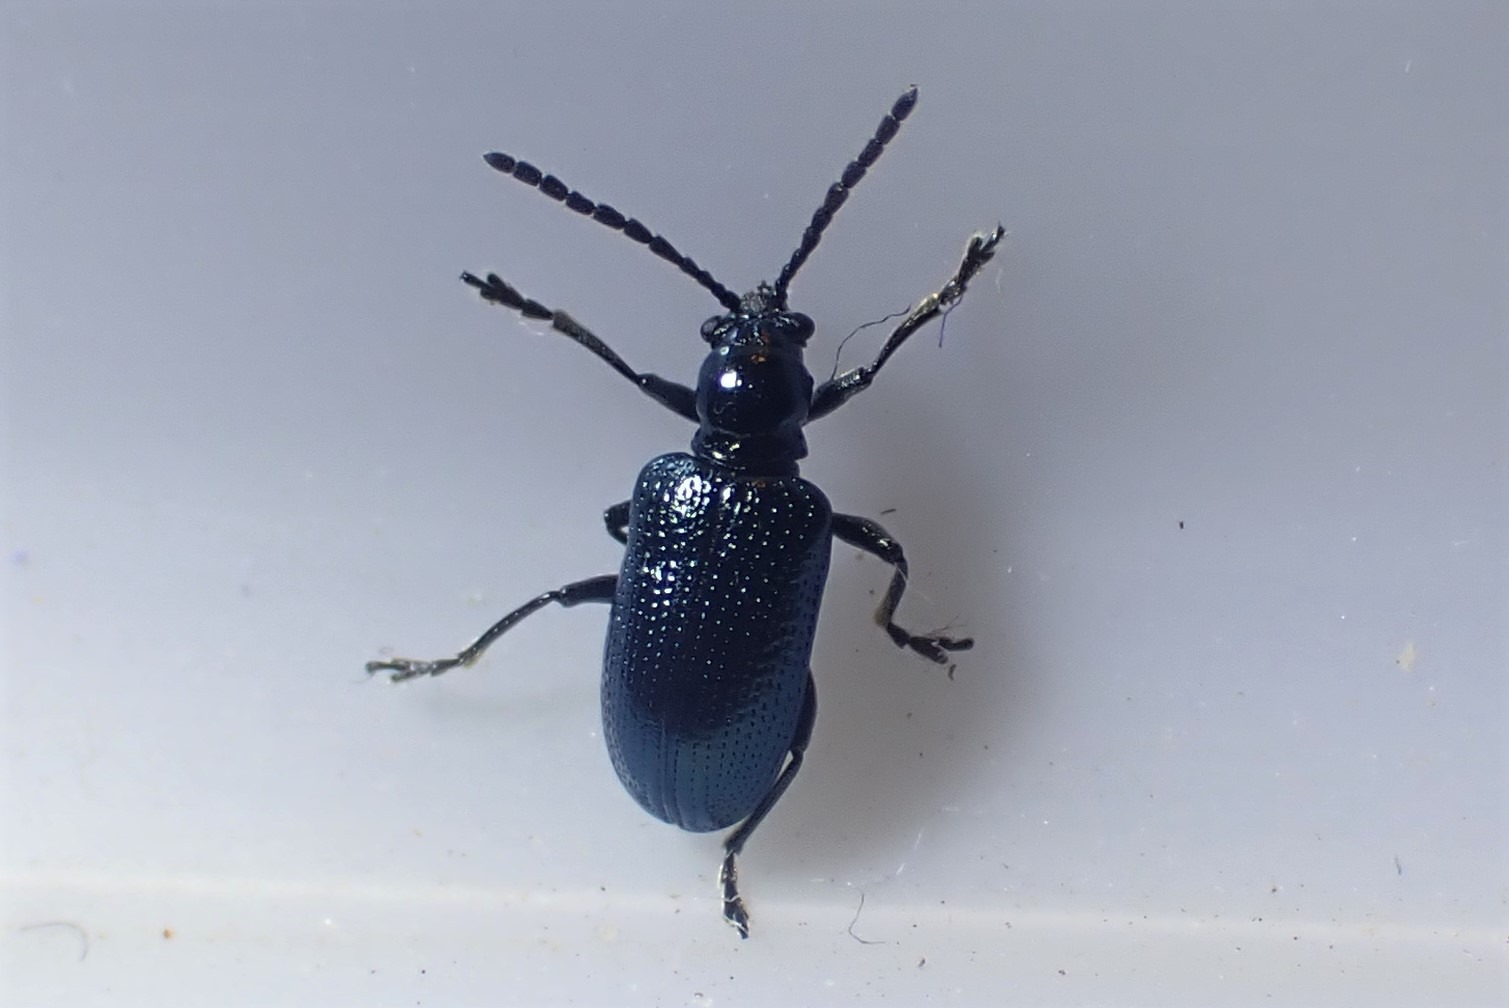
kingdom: Animalia
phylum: Arthropoda
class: Insecta
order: Coleoptera
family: Chrysomelidae
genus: Oulema
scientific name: Oulema gallaeciana
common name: Sortblå kornbladbille
